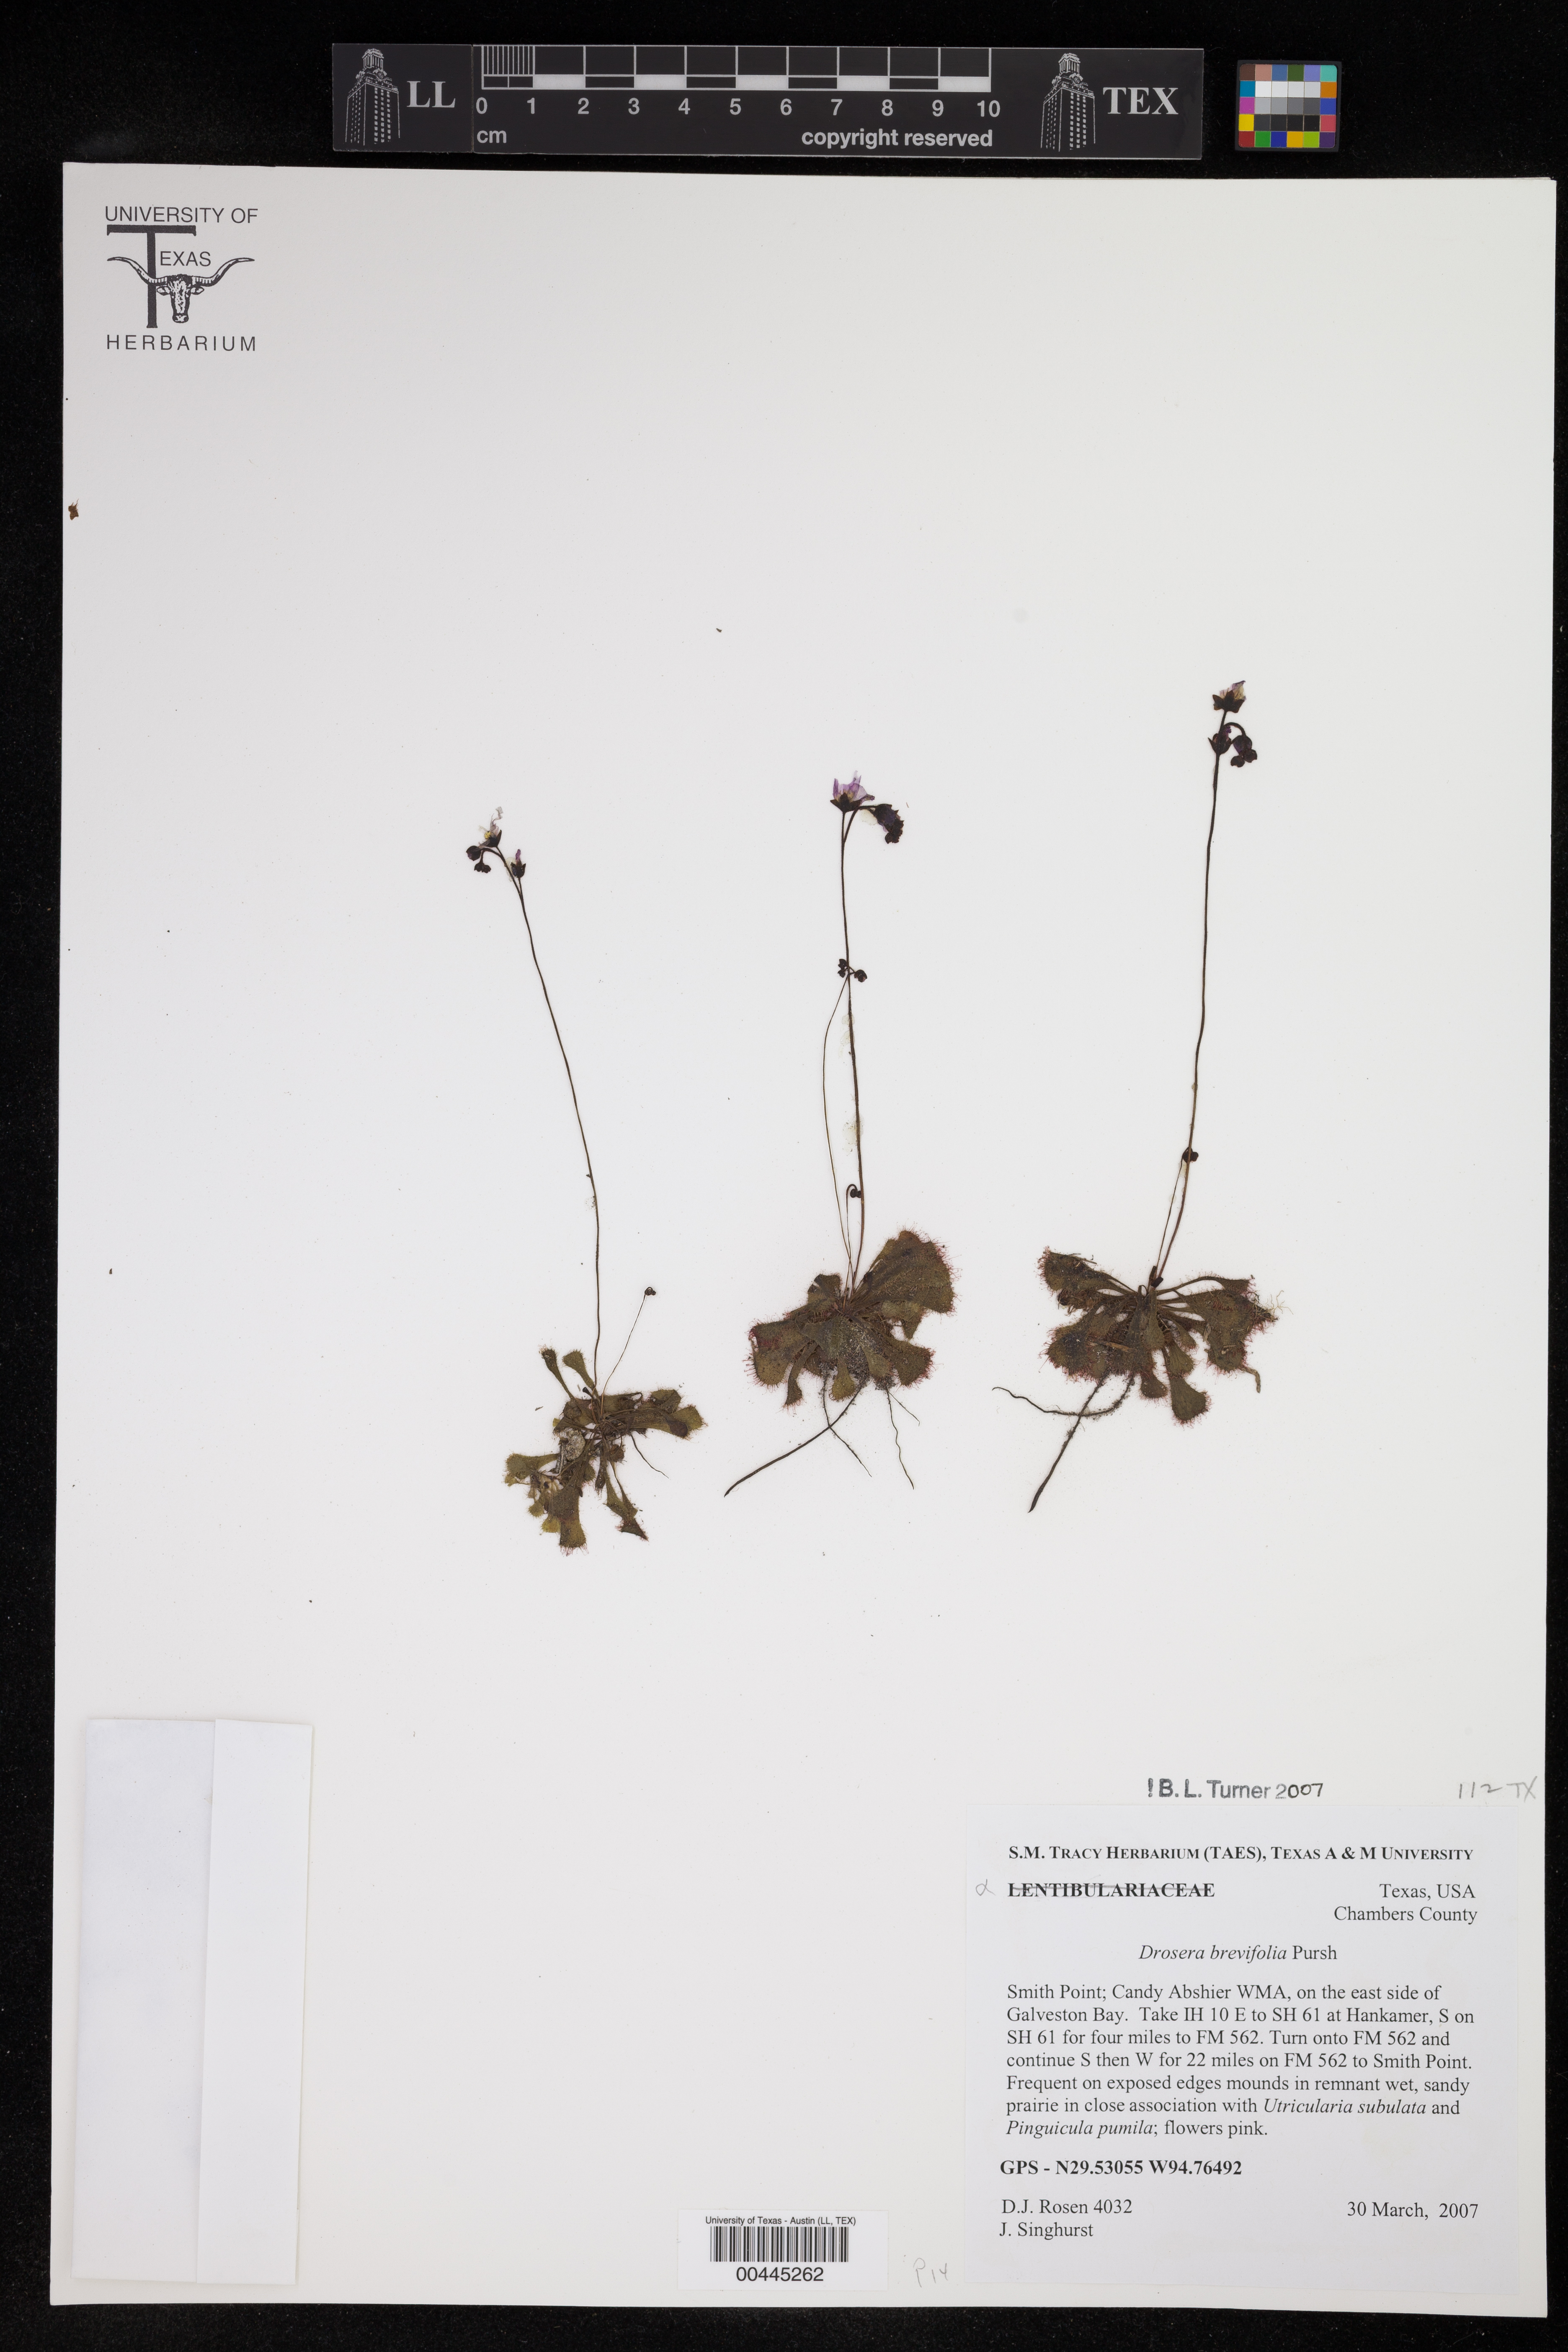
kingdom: Plantae
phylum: Tracheophyta
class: Magnoliopsida
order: Caryophyllales
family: Droseraceae
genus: Drosera
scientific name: Drosera brevifolia
